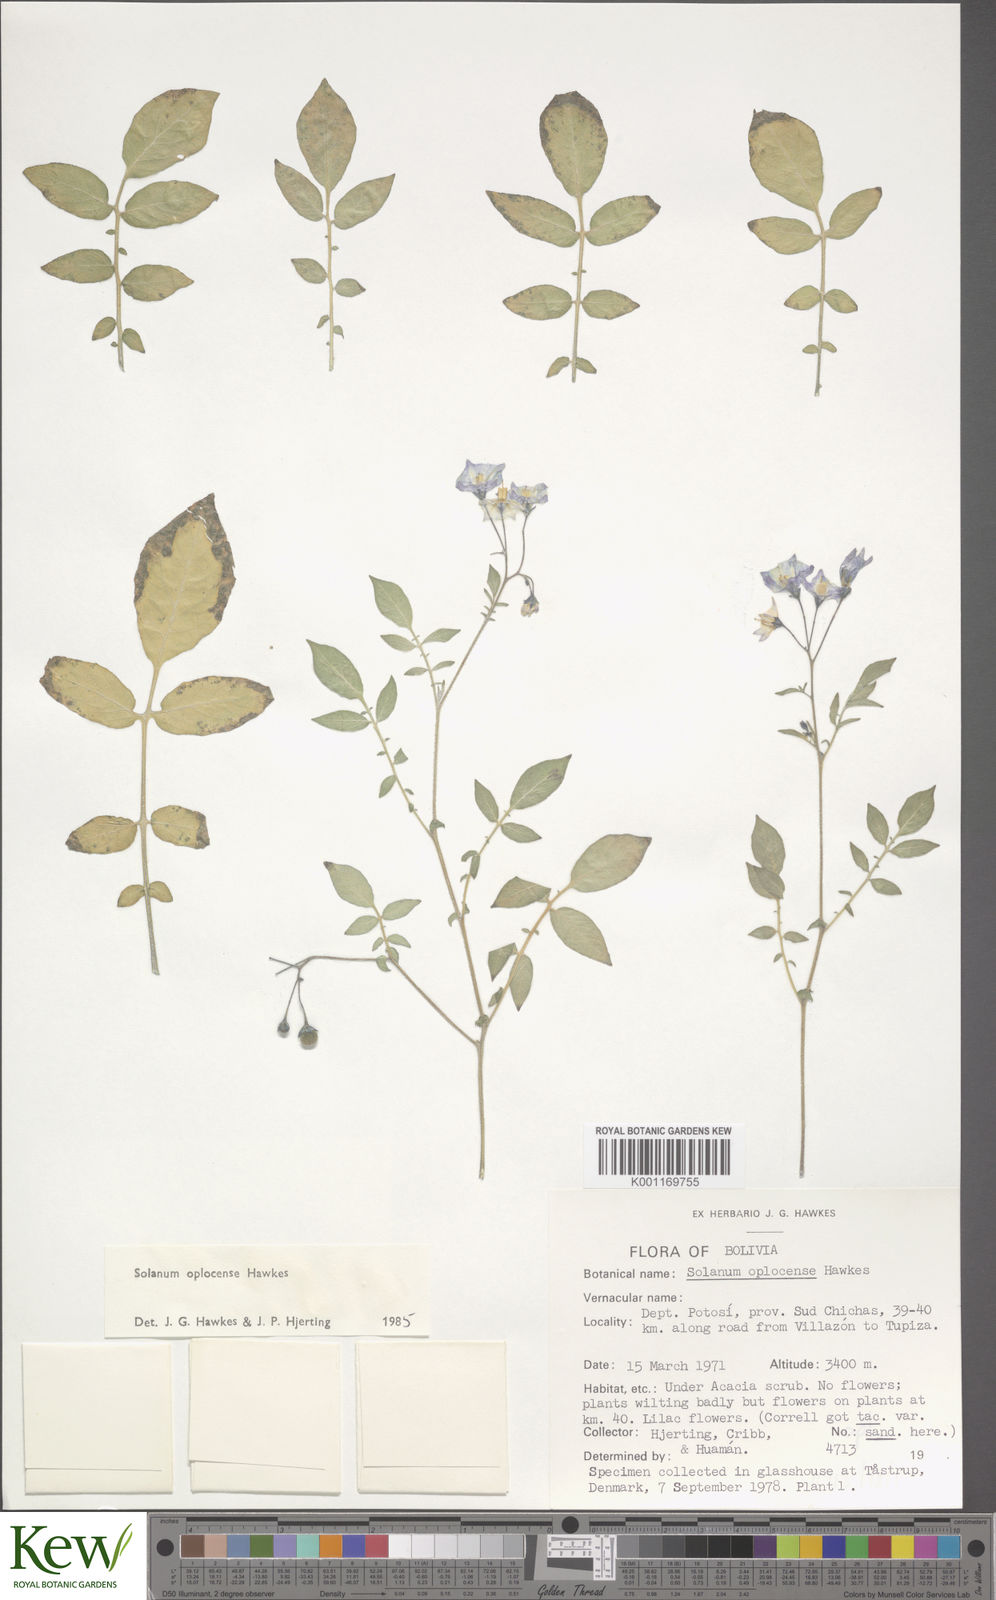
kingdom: Plantae
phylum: Tracheophyta
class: Magnoliopsida
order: Solanales
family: Solanaceae
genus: Solanum
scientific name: Solanum brevicaule
